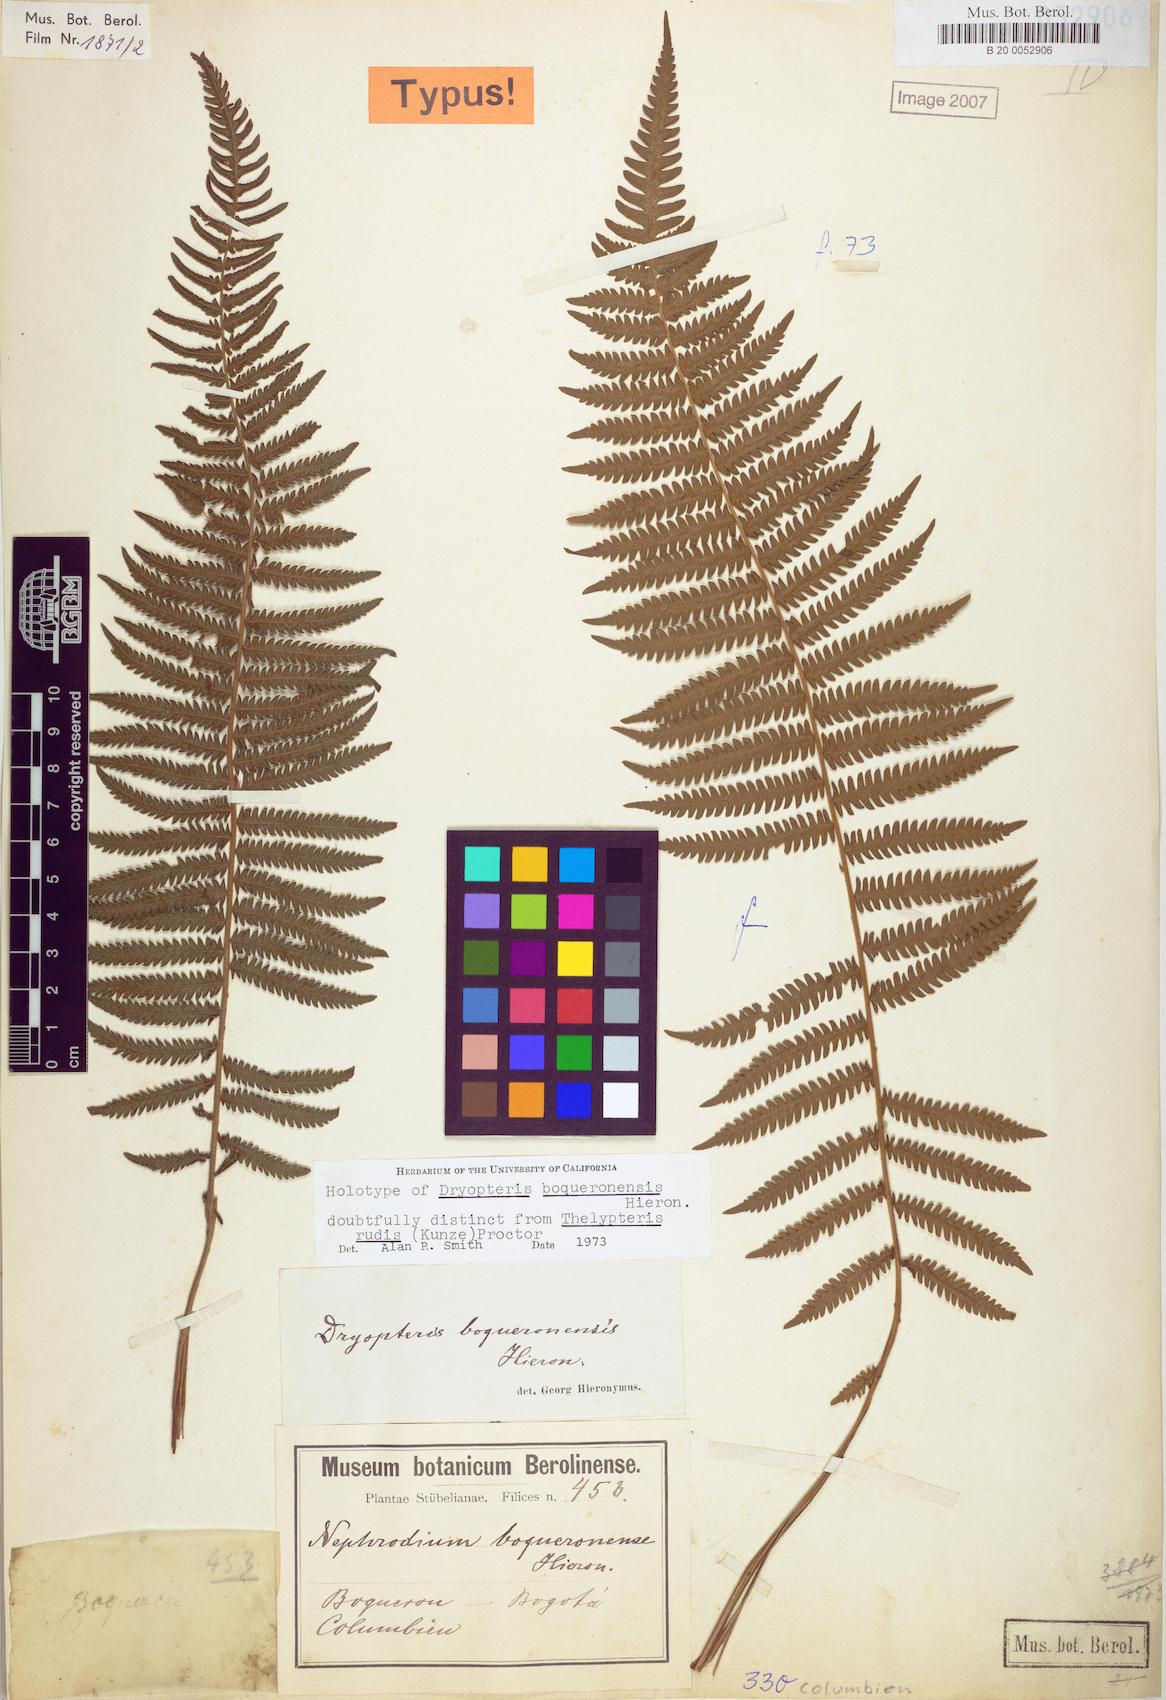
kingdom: Plantae
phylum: Tracheophyta
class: Polypodiopsida
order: Polypodiales
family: Thelypteridaceae
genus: Amauropelta
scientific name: Amauropelta rudis
